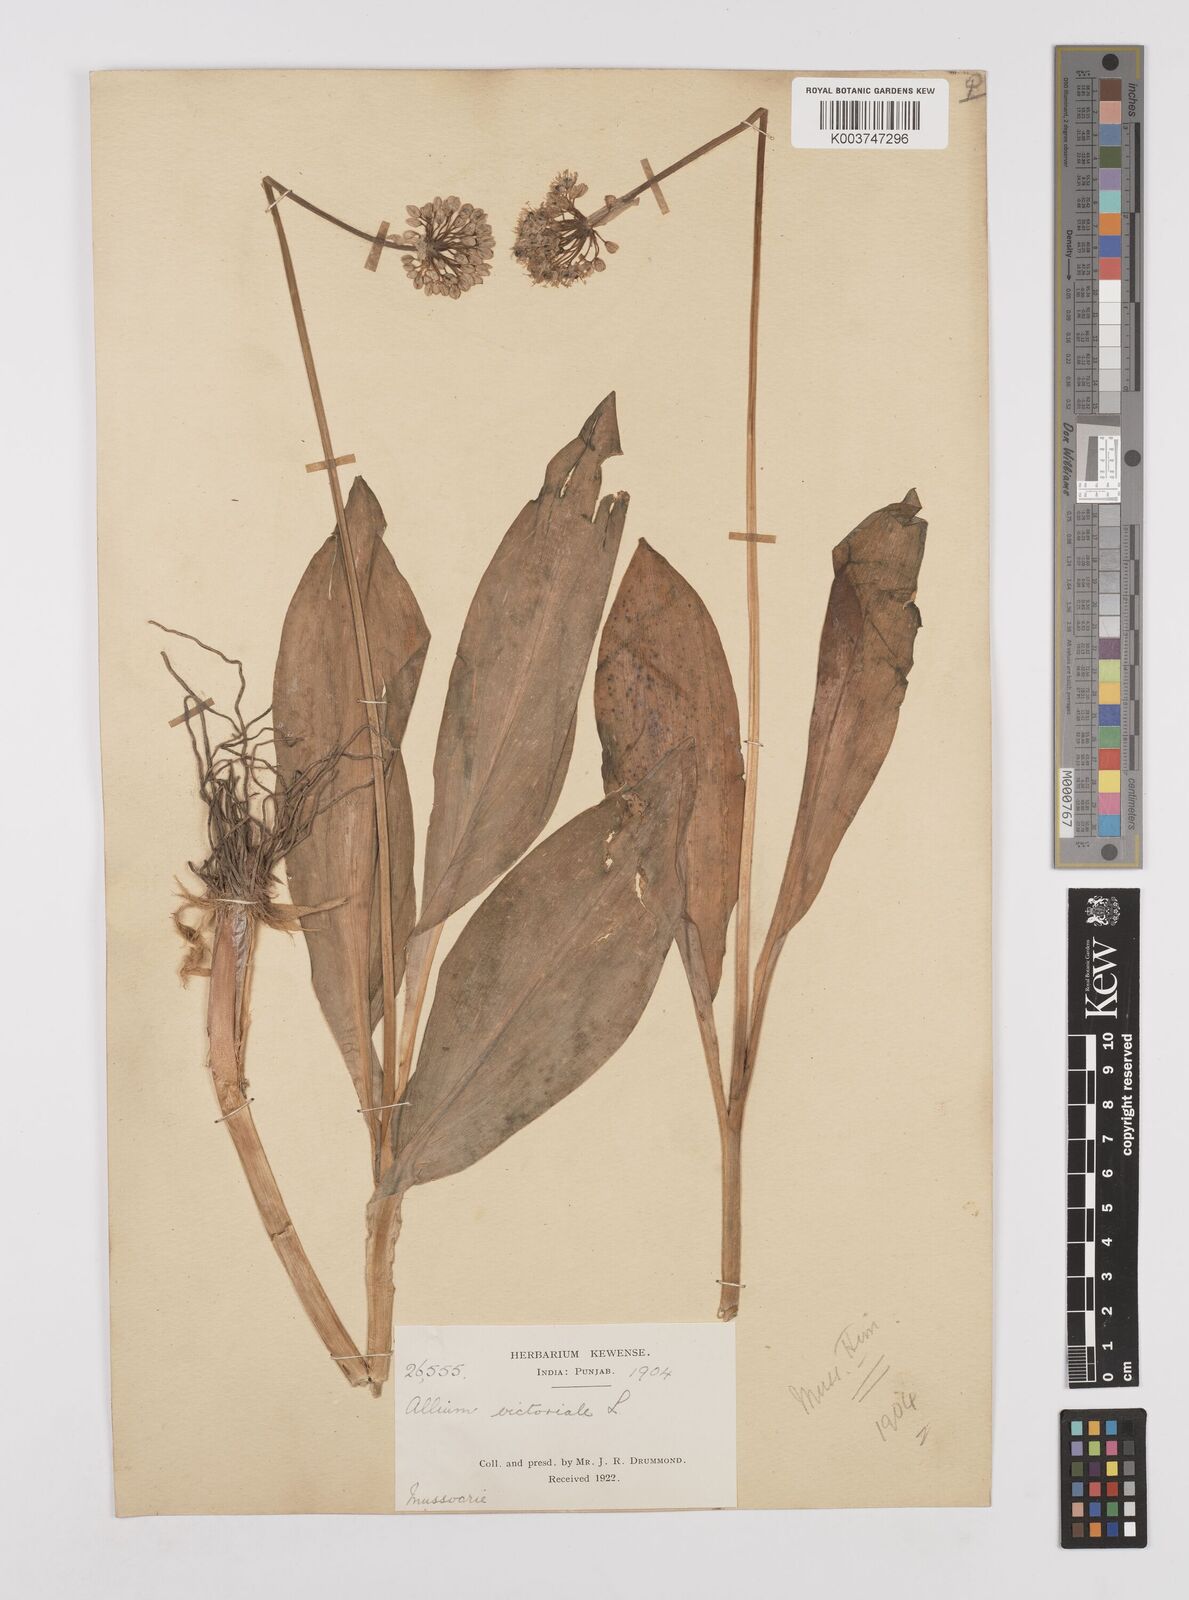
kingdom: Plantae
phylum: Tracheophyta
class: Liliopsida
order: Asparagales
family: Amaryllidaceae
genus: Allium
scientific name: Allium victorialis
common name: Alpine leek
